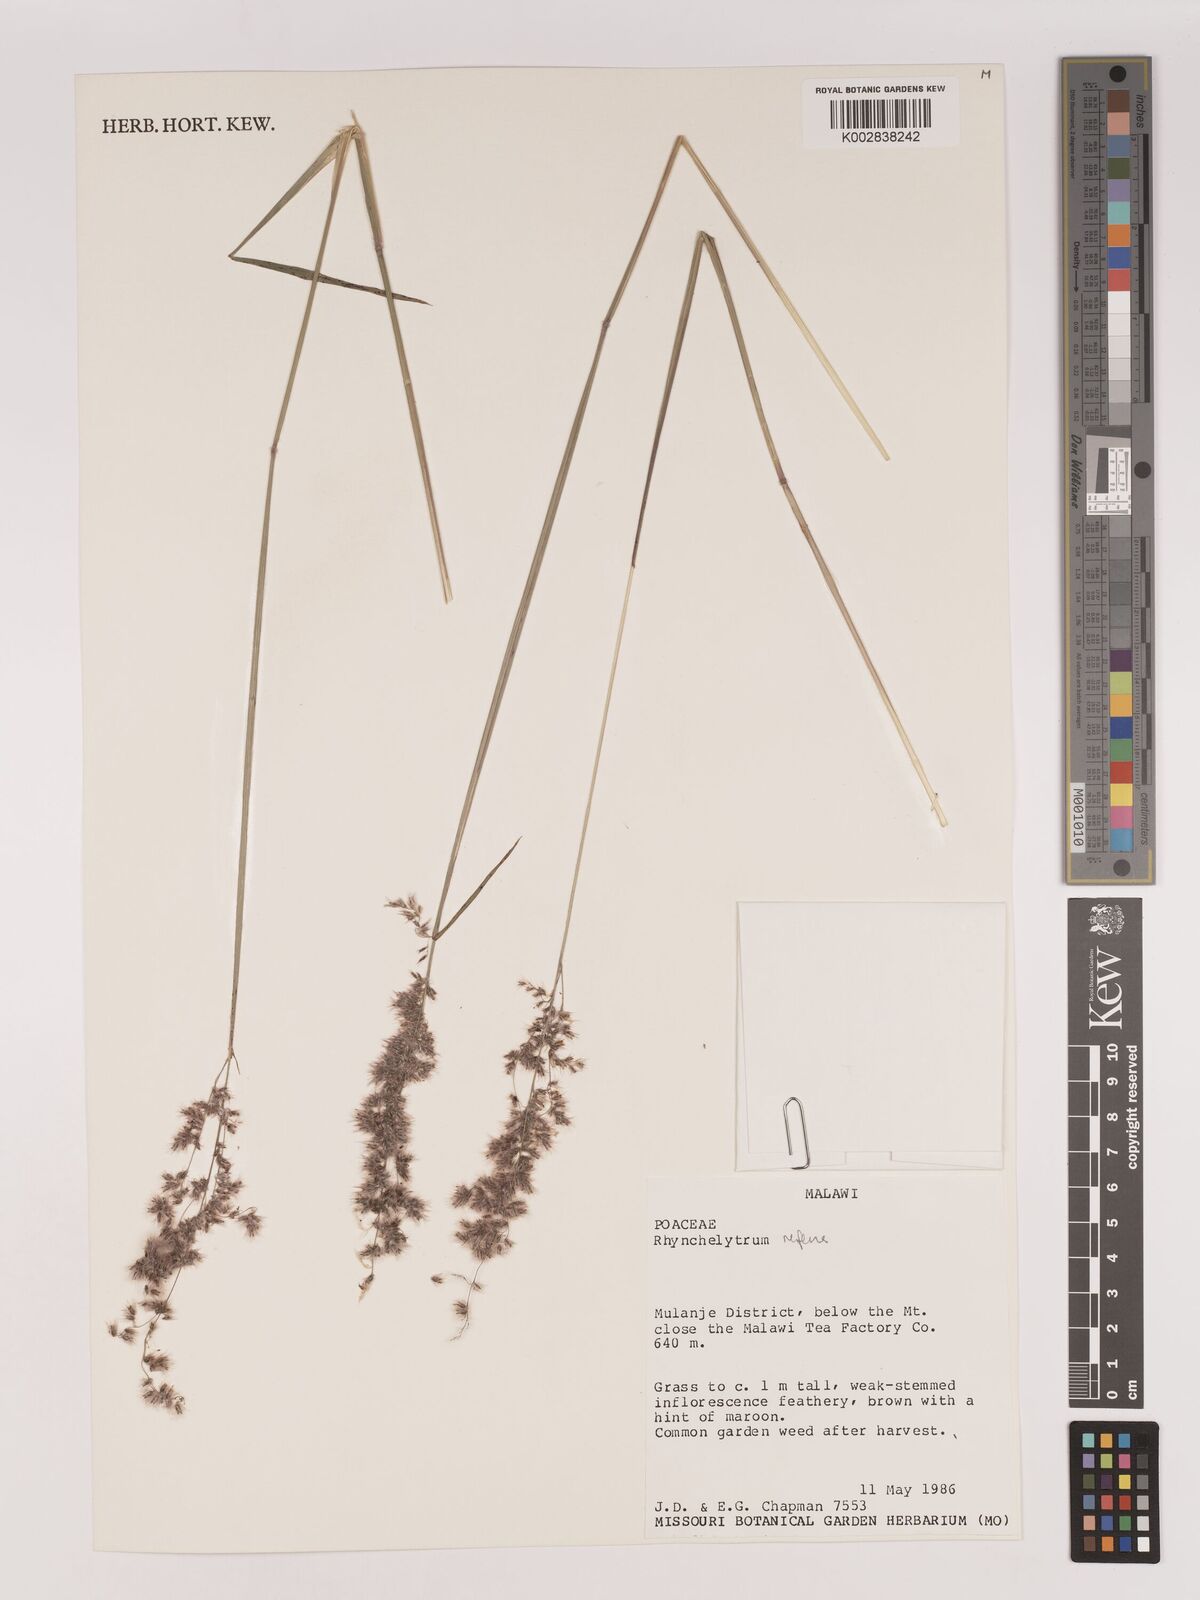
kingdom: Plantae
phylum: Tracheophyta
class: Liliopsida
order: Poales
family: Poaceae
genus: Melinis
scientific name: Melinis repens
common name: Rose natal grass
